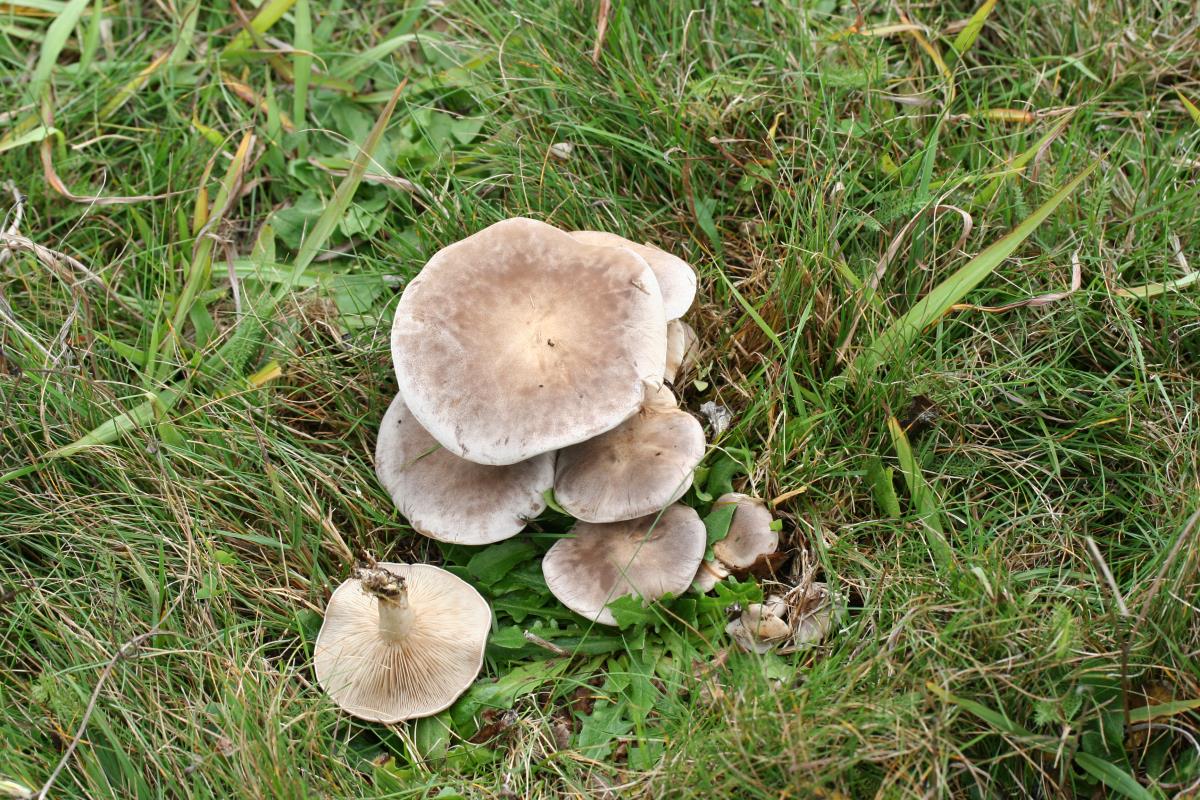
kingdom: Fungi
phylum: Basidiomycota
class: Agaricomycetes
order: Agaricales
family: Tricholomataceae
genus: Lepista
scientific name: Lepista panaeolus
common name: Spotted blewit
